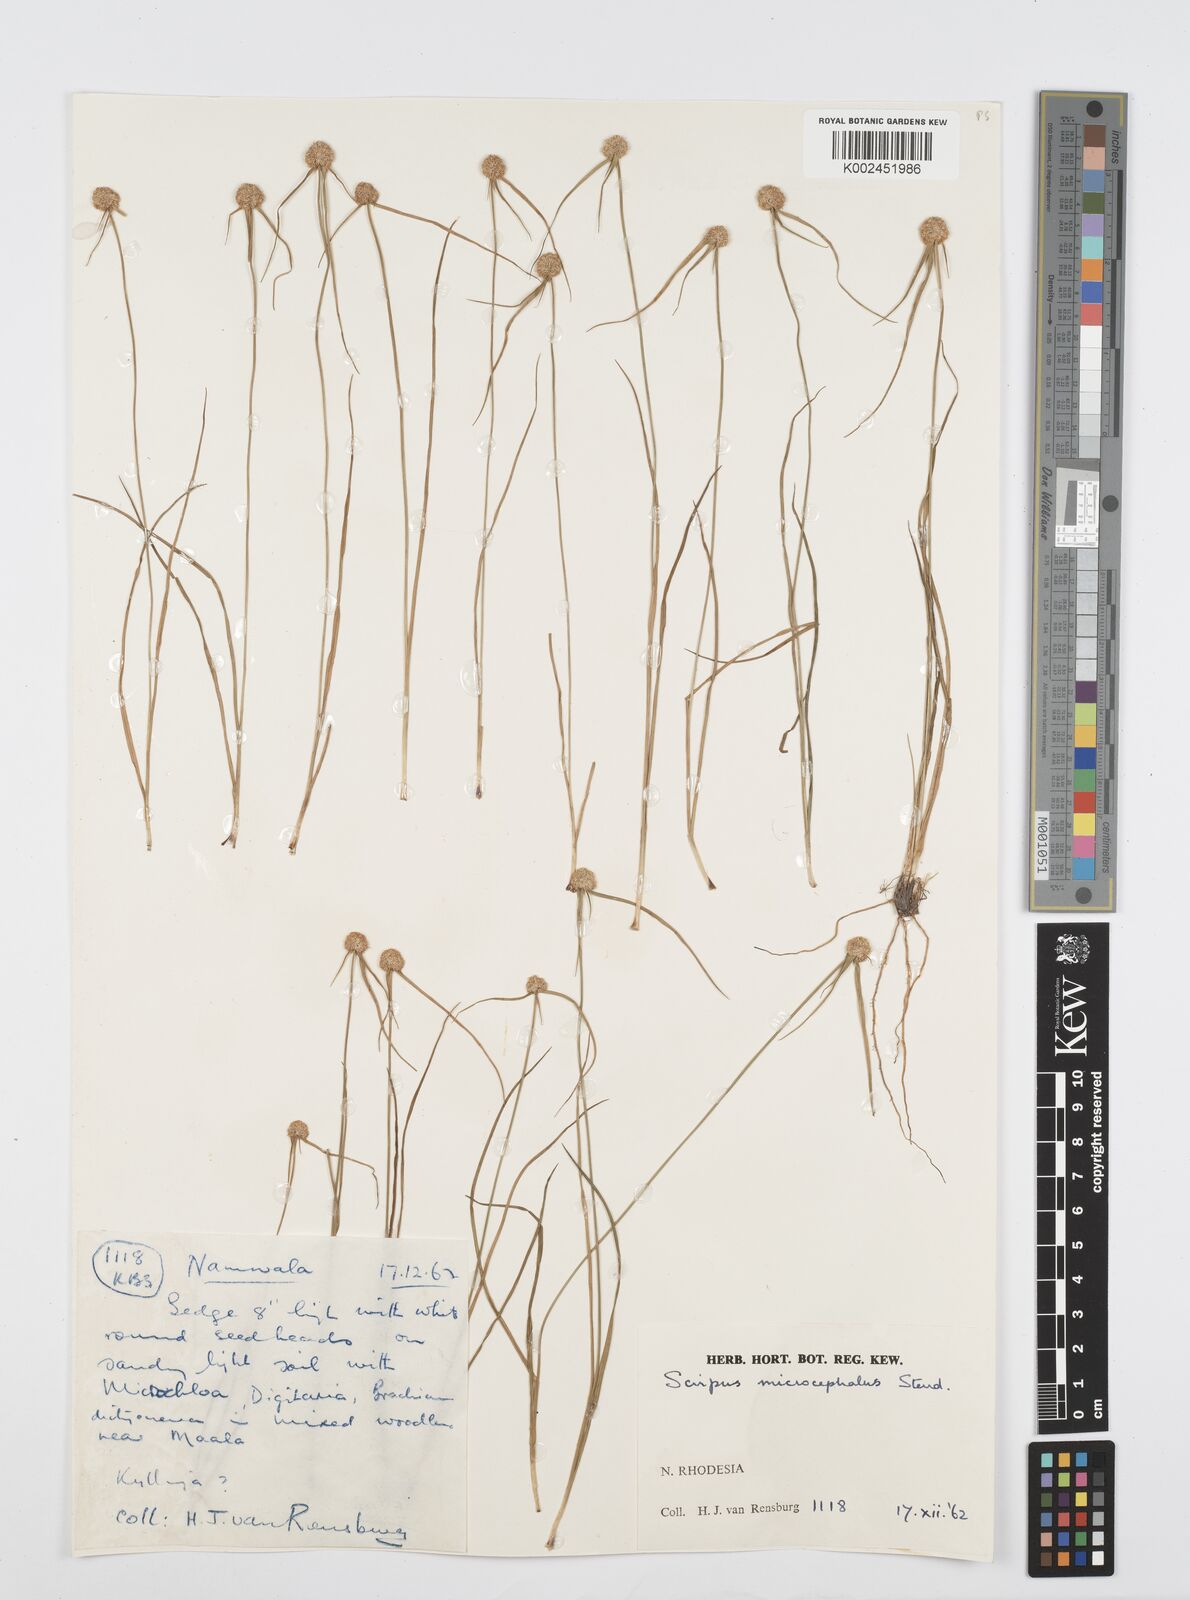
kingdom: Plantae
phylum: Tracheophyta
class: Liliopsida
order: Poales
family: Cyperaceae
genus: Cyperus
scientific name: Cyperus microcephalus
